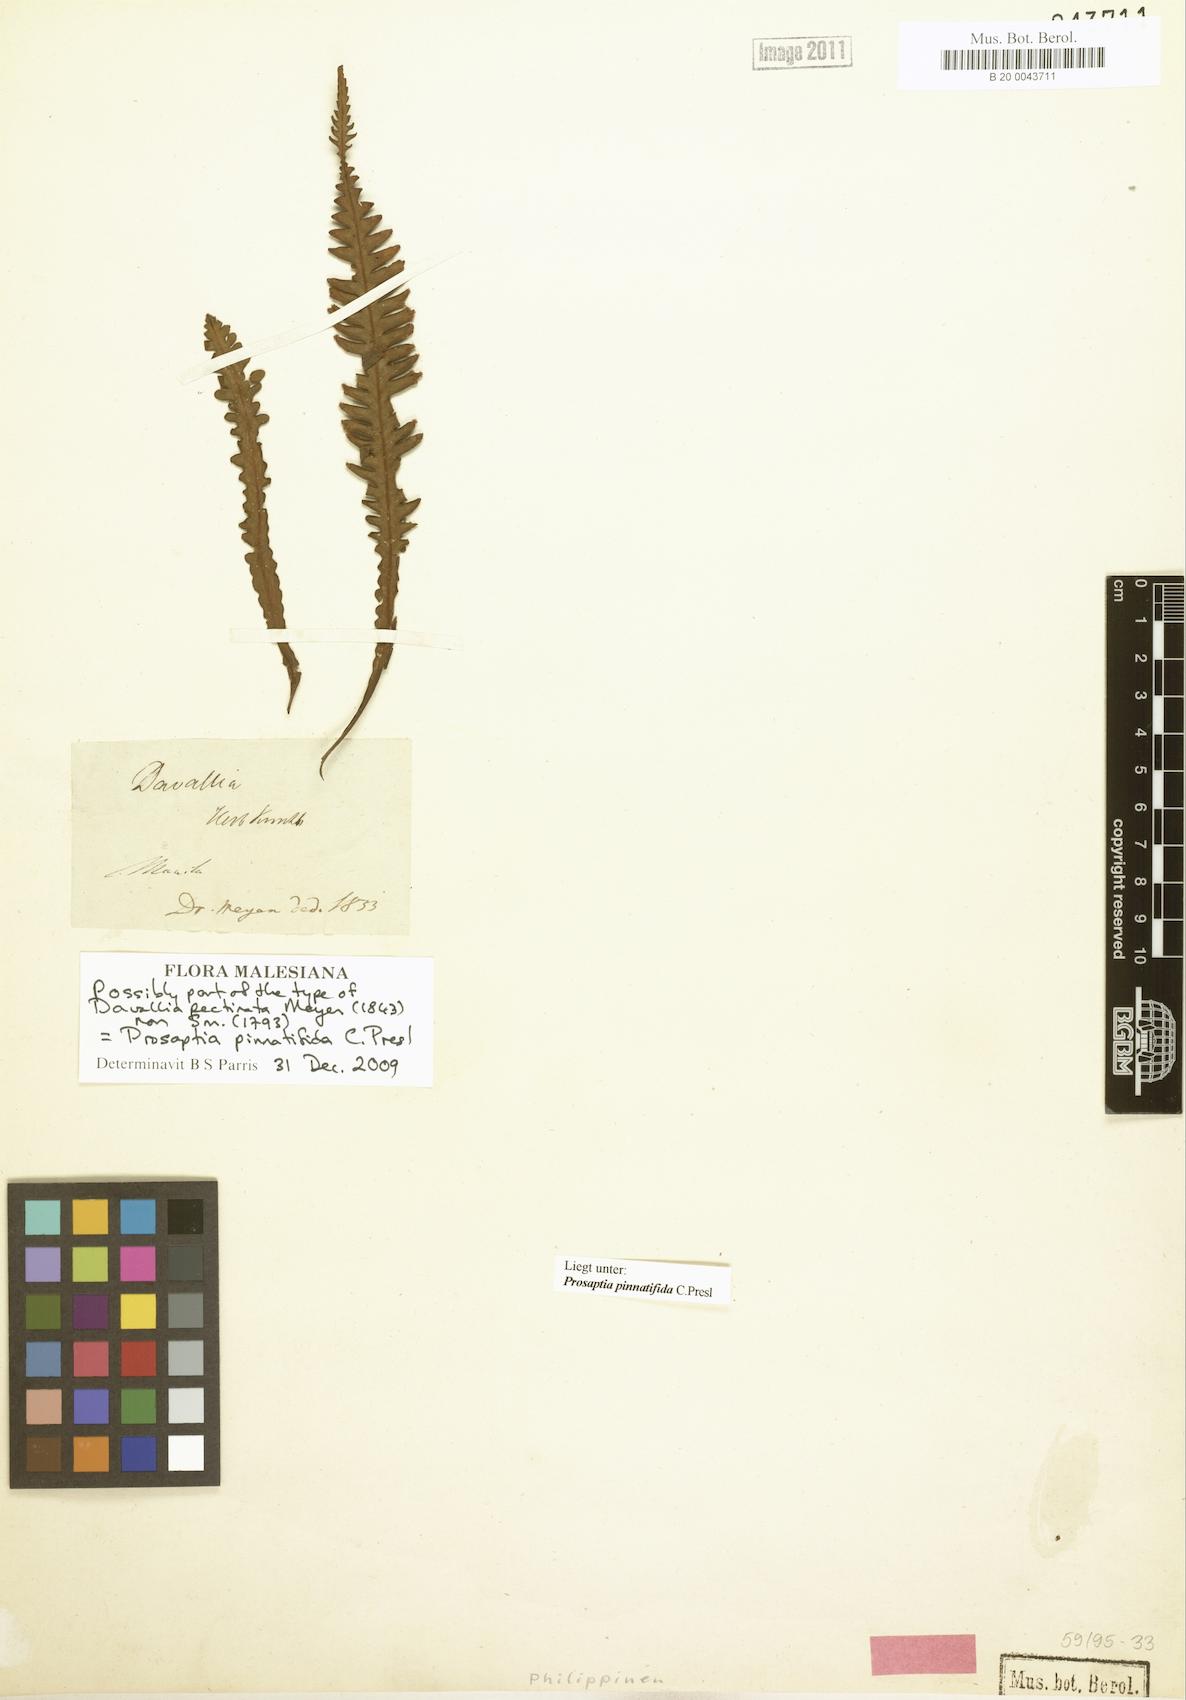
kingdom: Plantae
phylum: Tracheophyta
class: Polypodiopsida
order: Polypodiales
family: Polypodiaceae
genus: Prosaptia
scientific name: Prosaptia pinnatifida
